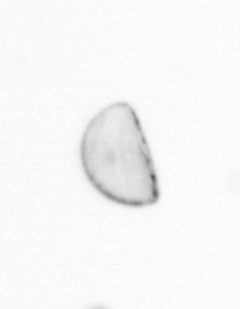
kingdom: Chromista
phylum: Ochrophyta
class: Bacillariophyceae
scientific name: Bacillariophyceae
